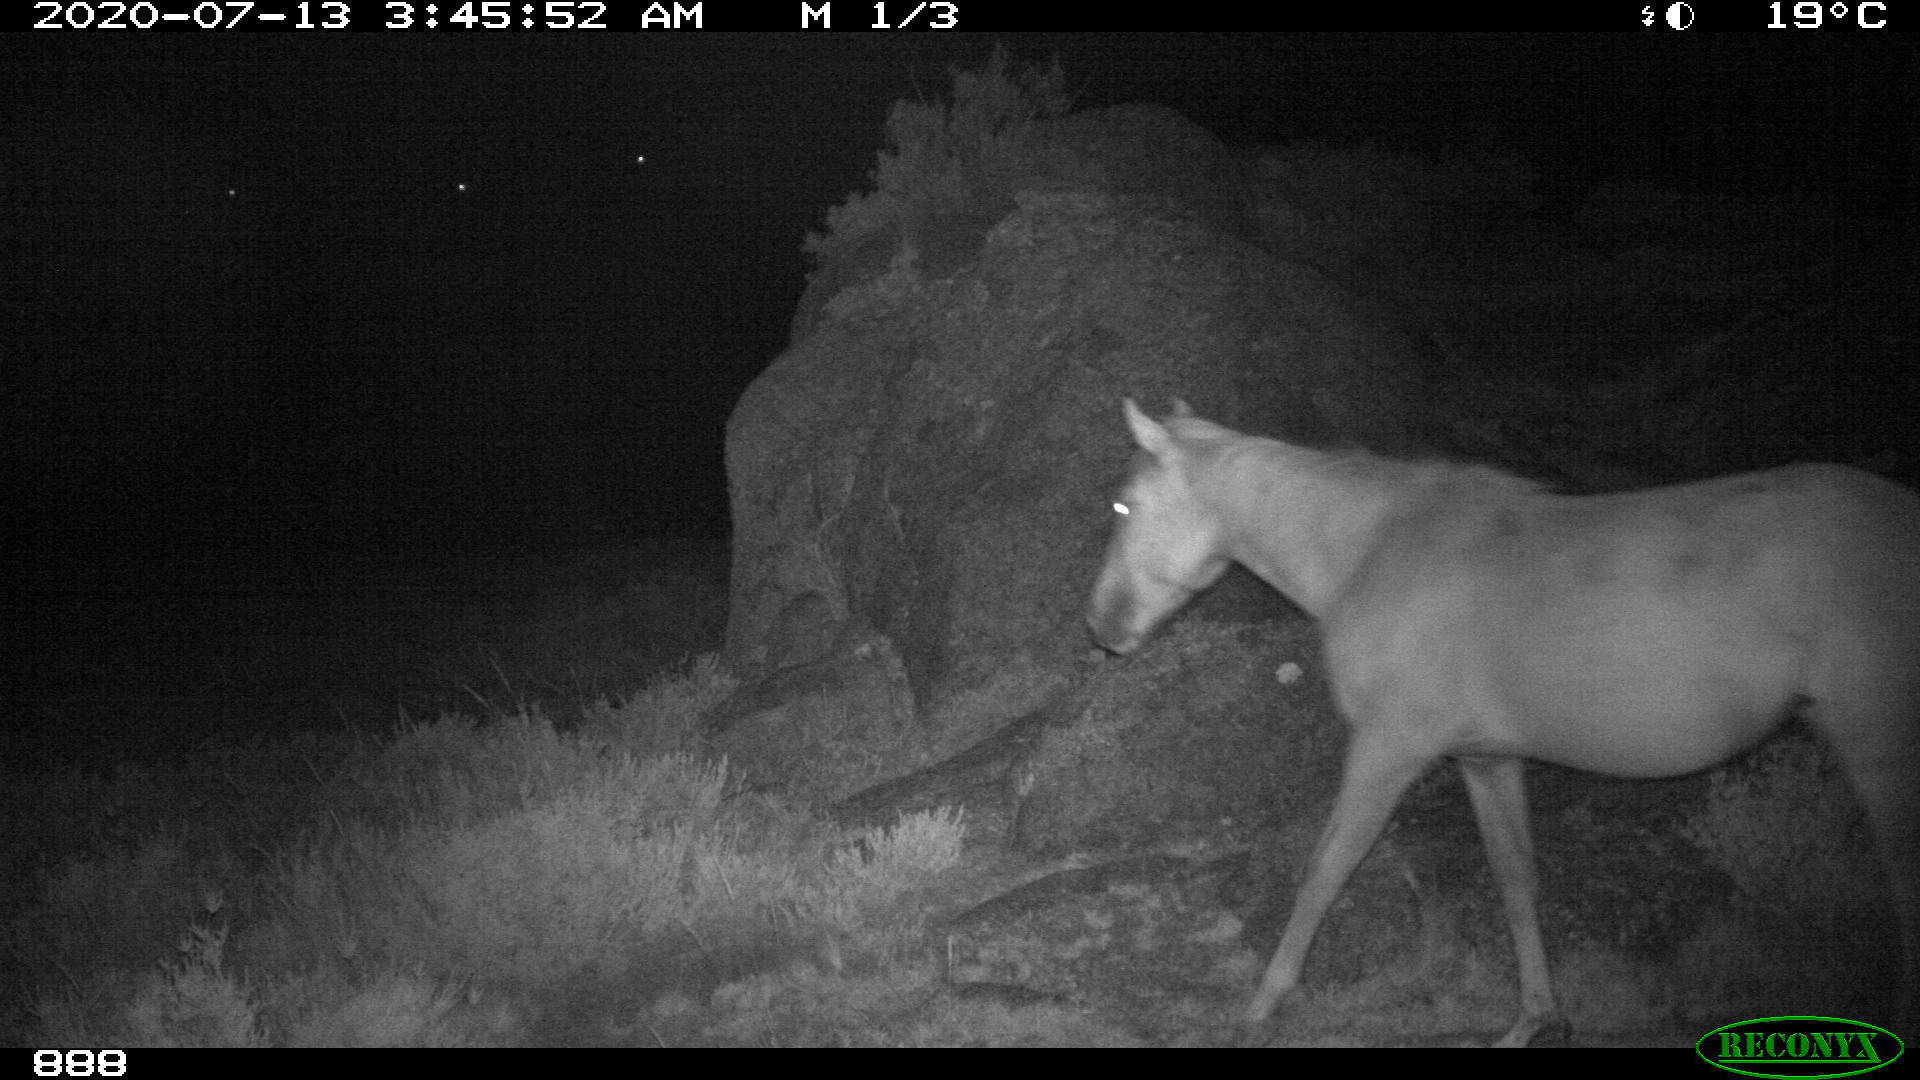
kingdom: Animalia
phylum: Chordata
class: Mammalia
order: Perissodactyla
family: Equidae
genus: Equus
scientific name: Equus caballus
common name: Horse
